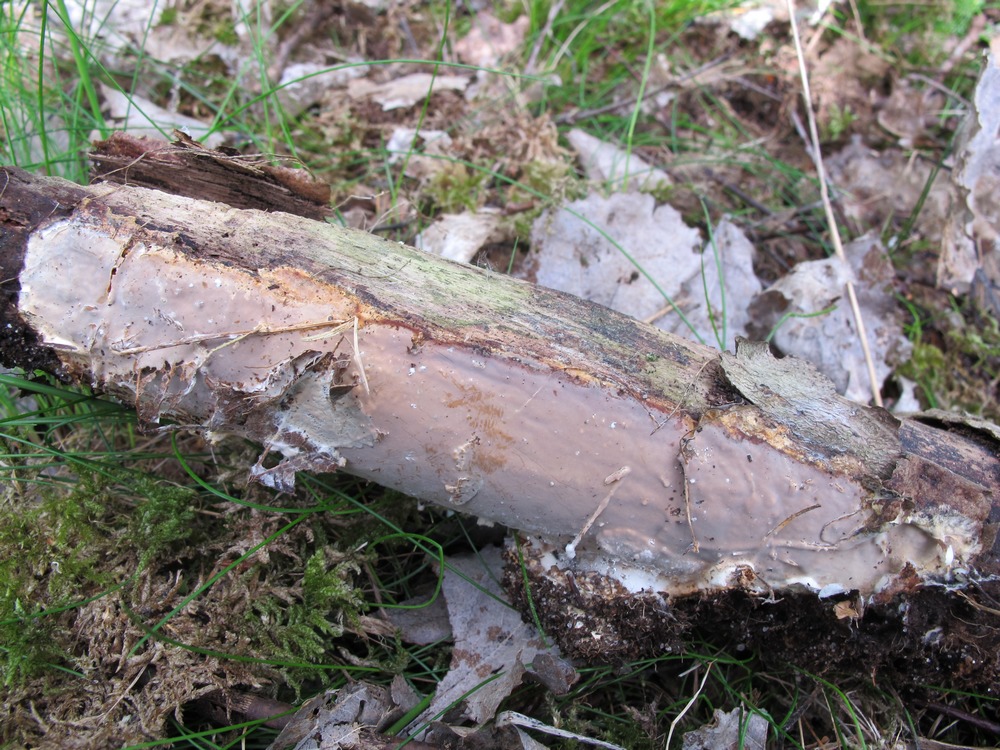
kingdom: Fungi
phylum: Basidiomycota
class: Agaricomycetes
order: Russulales
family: Peniophoraceae
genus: Scytinostroma
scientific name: Scytinostroma hemidichophyticum
